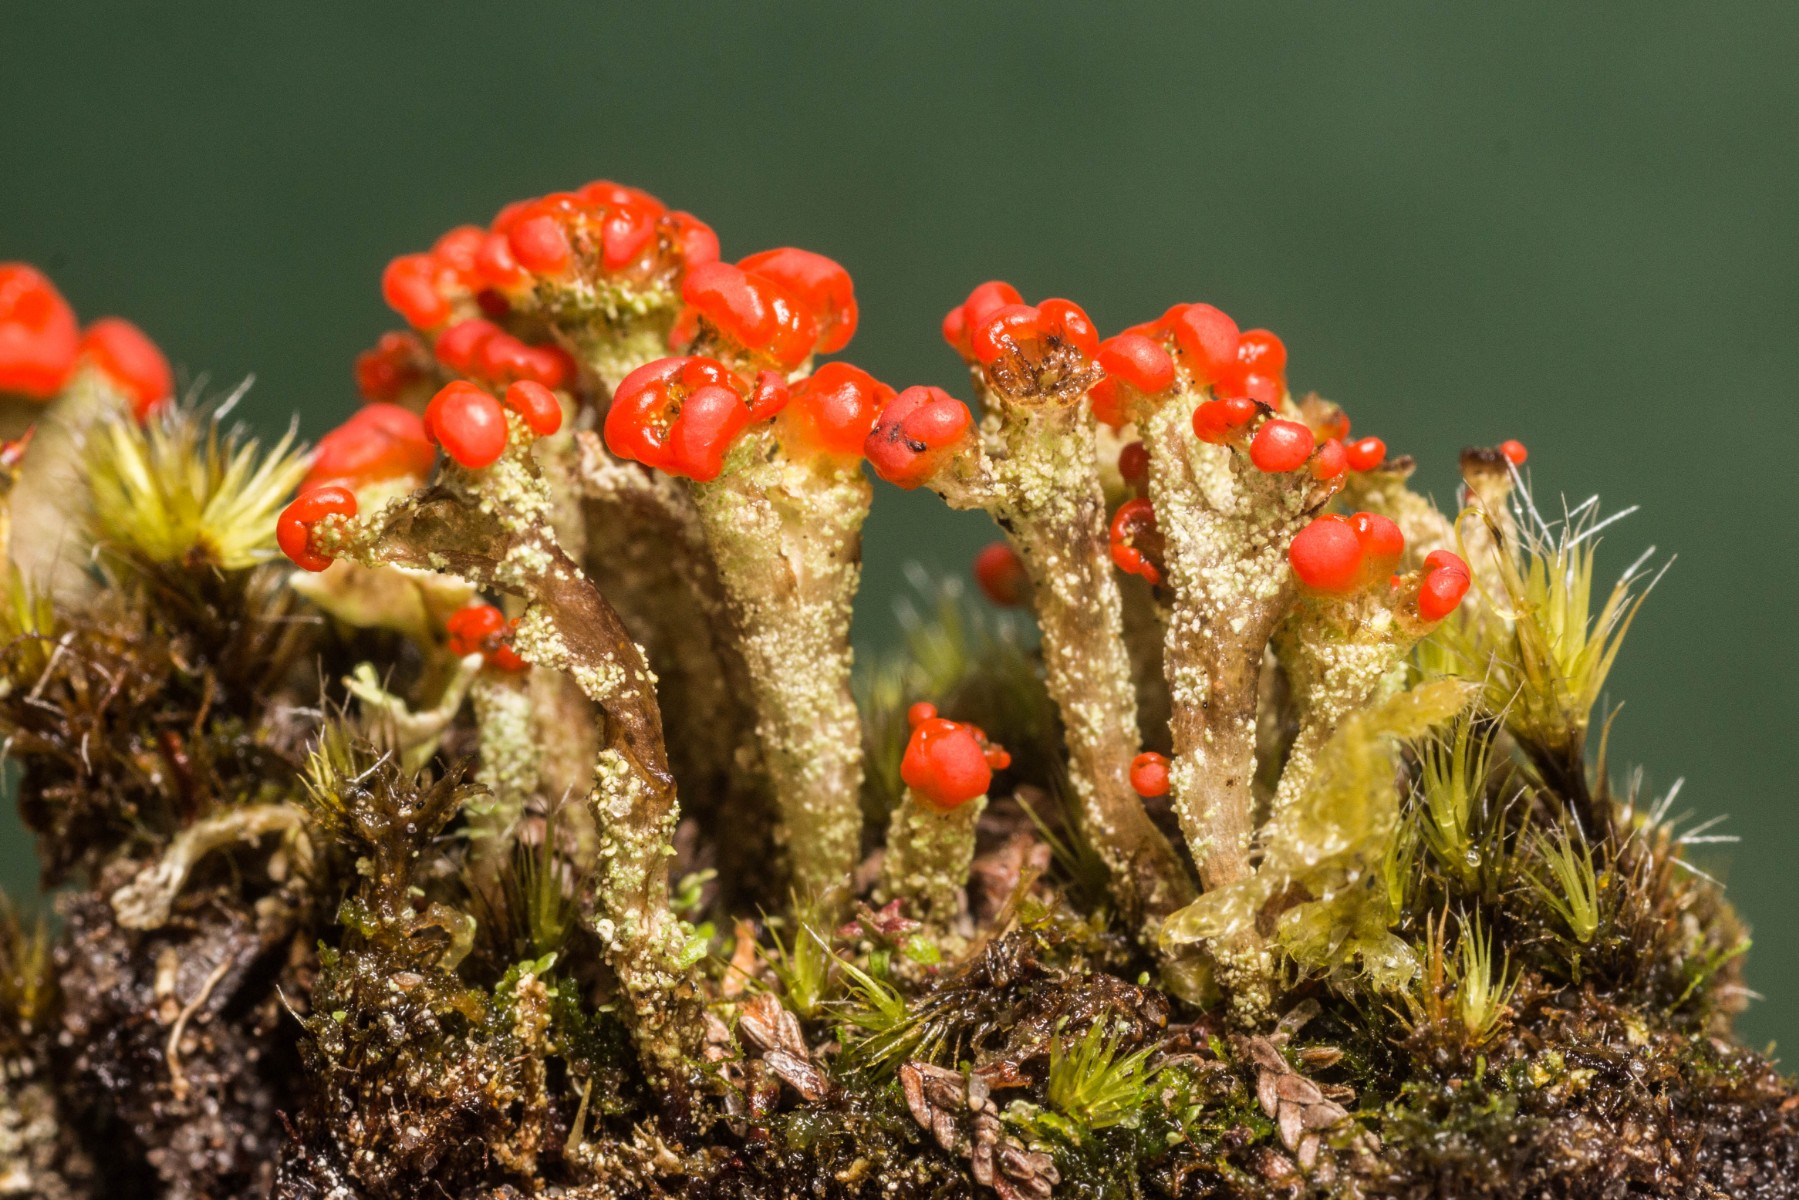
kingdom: Fungi
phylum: Ascomycota
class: Lecanoromycetes
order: Lecanorales
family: Cladoniaceae
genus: Cladonia
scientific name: Cladonia floerkeana
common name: lakrød bægerlav
